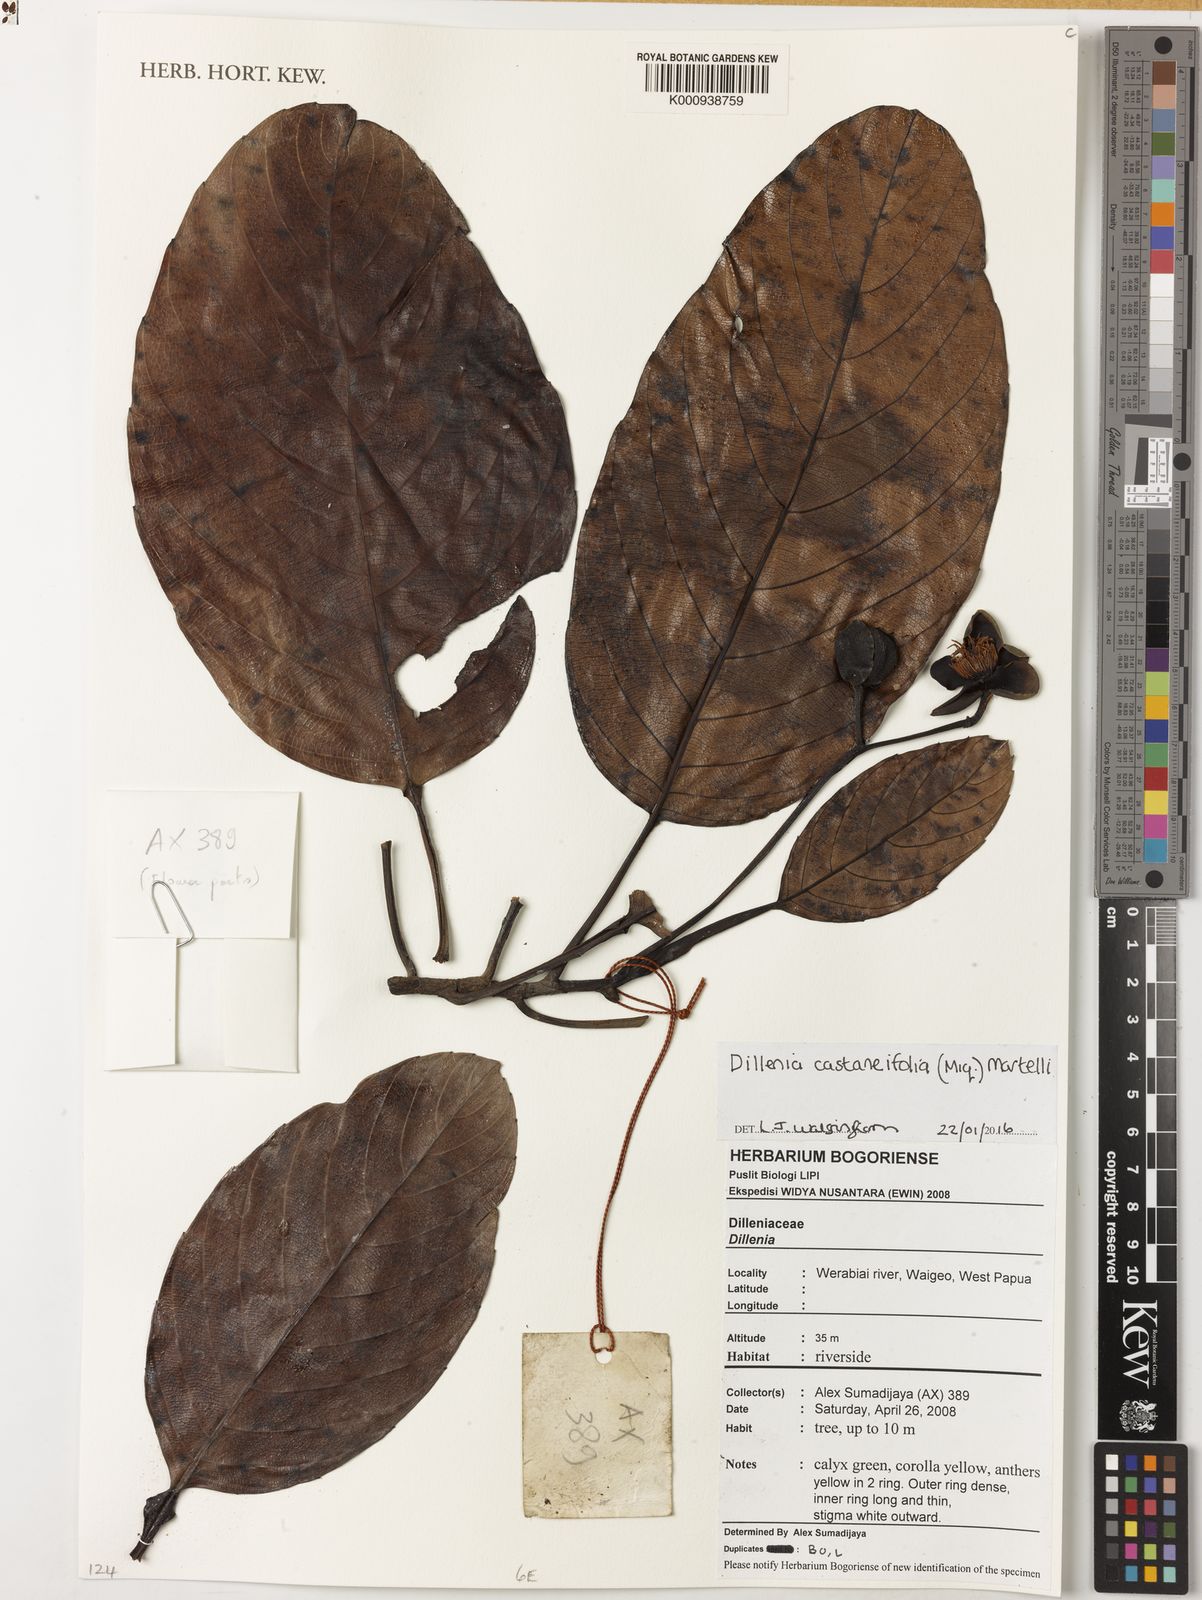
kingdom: Plantae
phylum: Tracheophyta
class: Magnoliopsida
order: Dilleniales
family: Dilleniaceae
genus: Dillenia
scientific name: Dillenia castaneifolia
